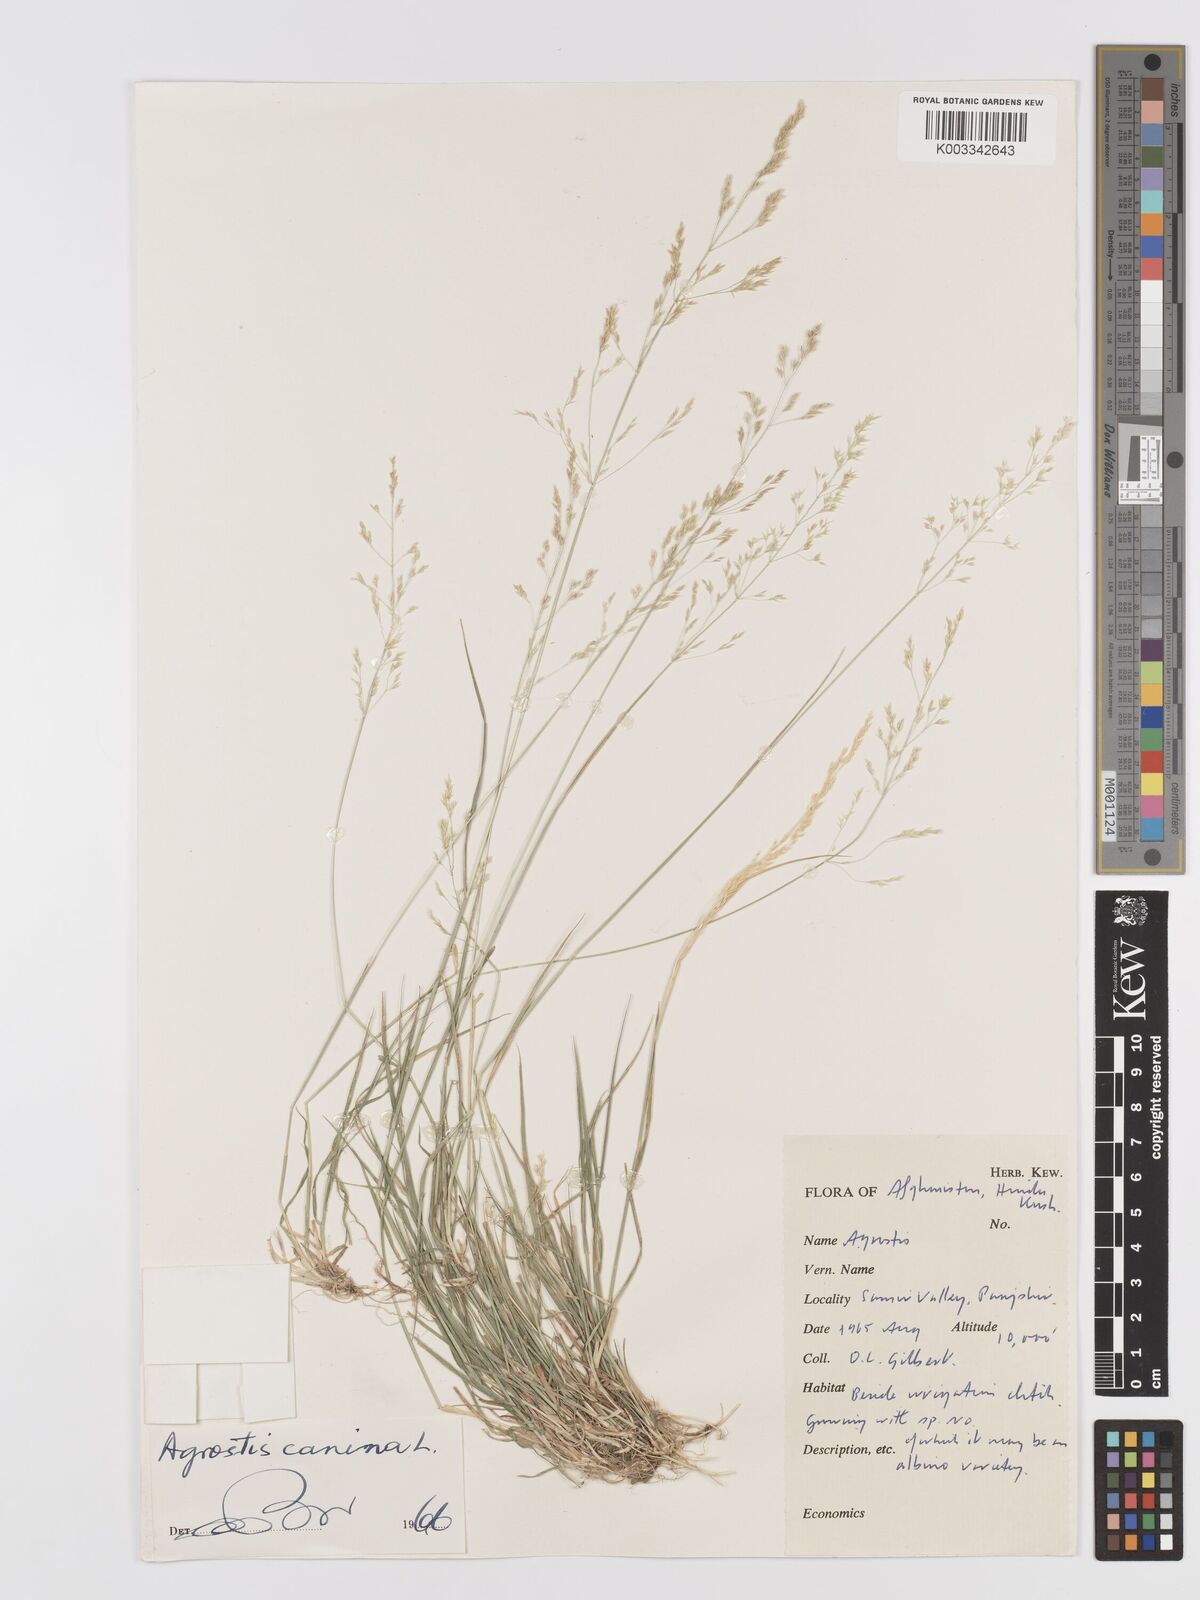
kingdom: Plantae
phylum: Tracheophyta
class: Liliopsida
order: Poales
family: Poaceae
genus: Agrostis
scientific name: Agrostis canina
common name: Velvet bent
